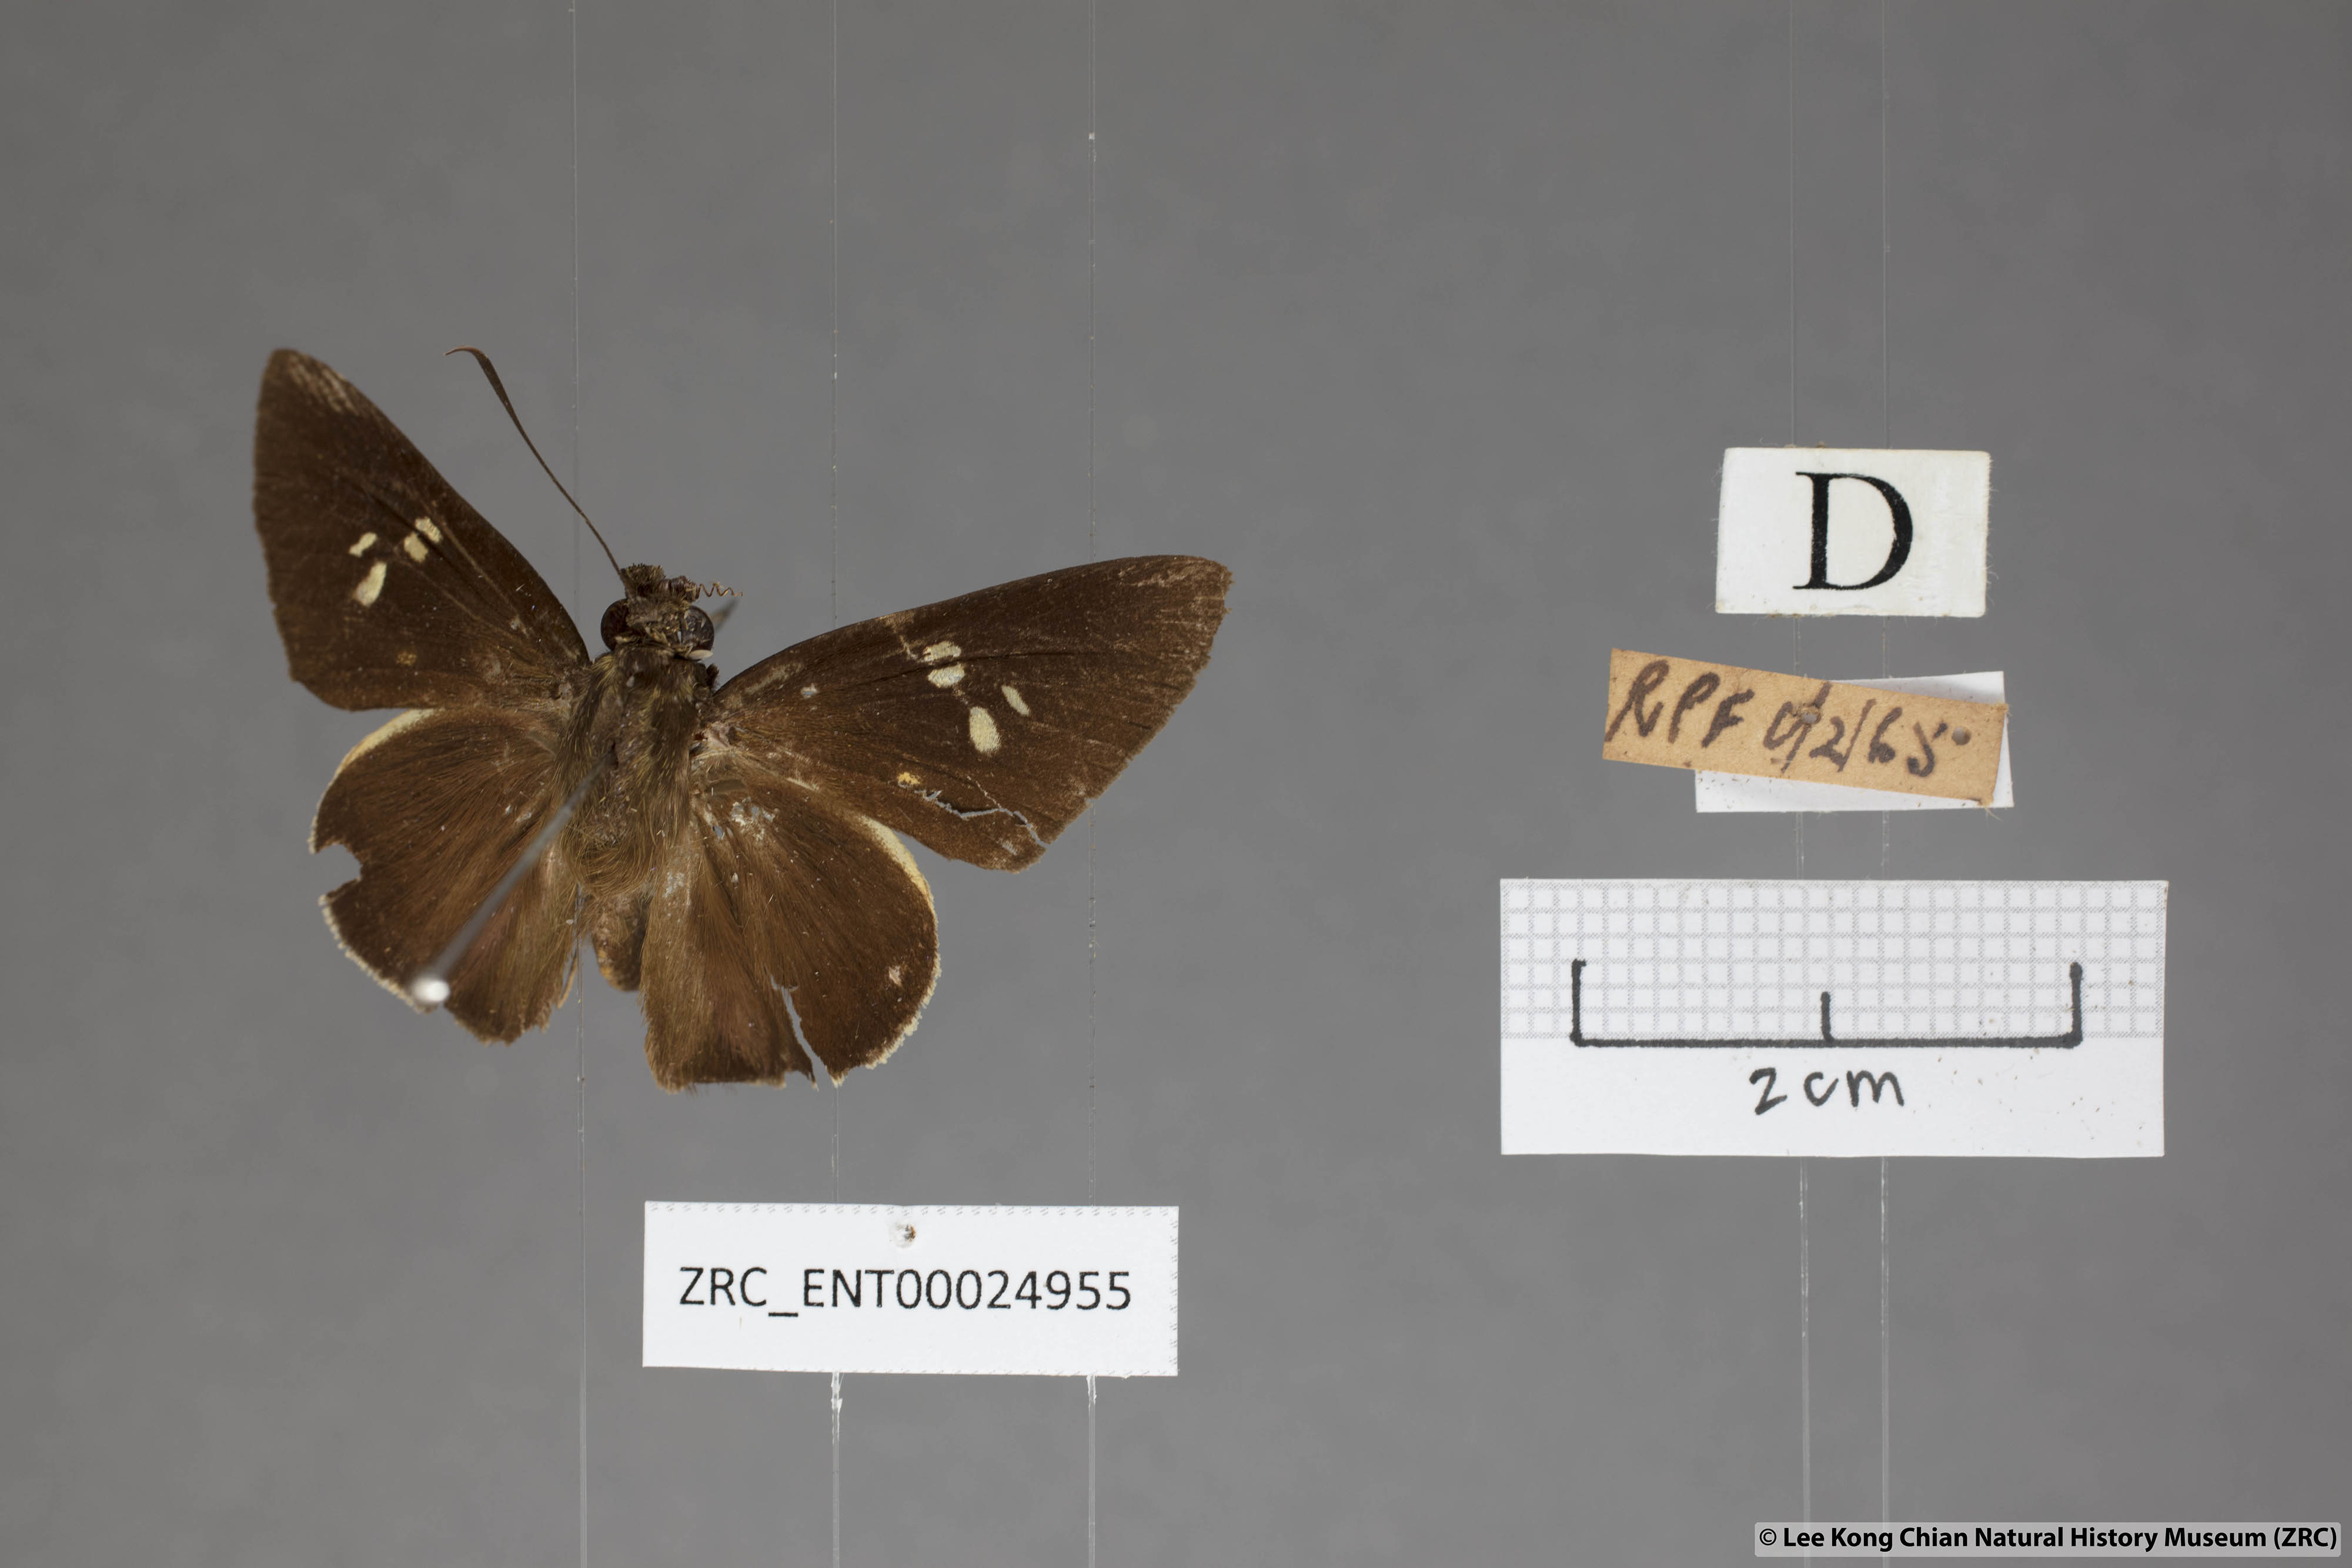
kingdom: Animalia
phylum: Arthropoda
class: Insecta
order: Lepidoptera
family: Hesperiidae
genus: Lotongus
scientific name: Lotongus calathus
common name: White-tipped palmer
